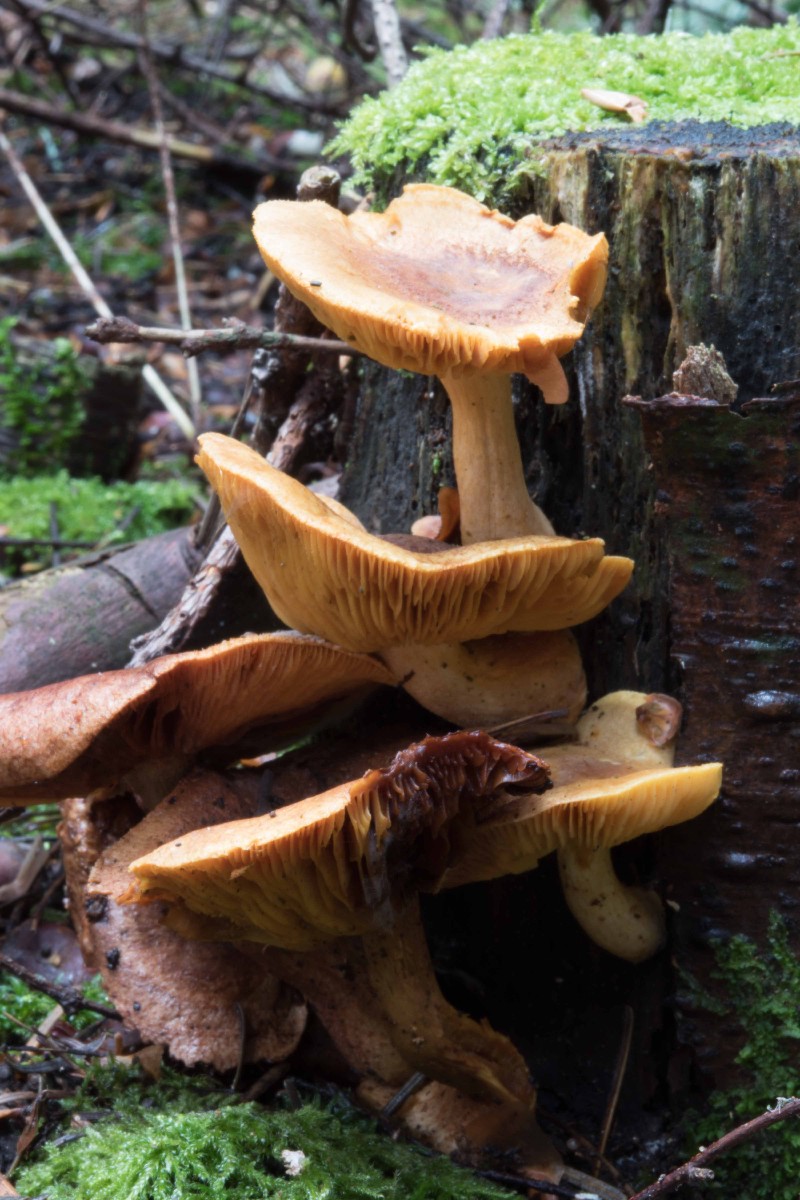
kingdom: Fungi
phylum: Basidiomycota
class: Agaricomycetes
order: Agaricales
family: Tricholomataceae
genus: Tricholomopsis
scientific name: Tricholomopsis rutilans
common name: purpur-væbnerhat
